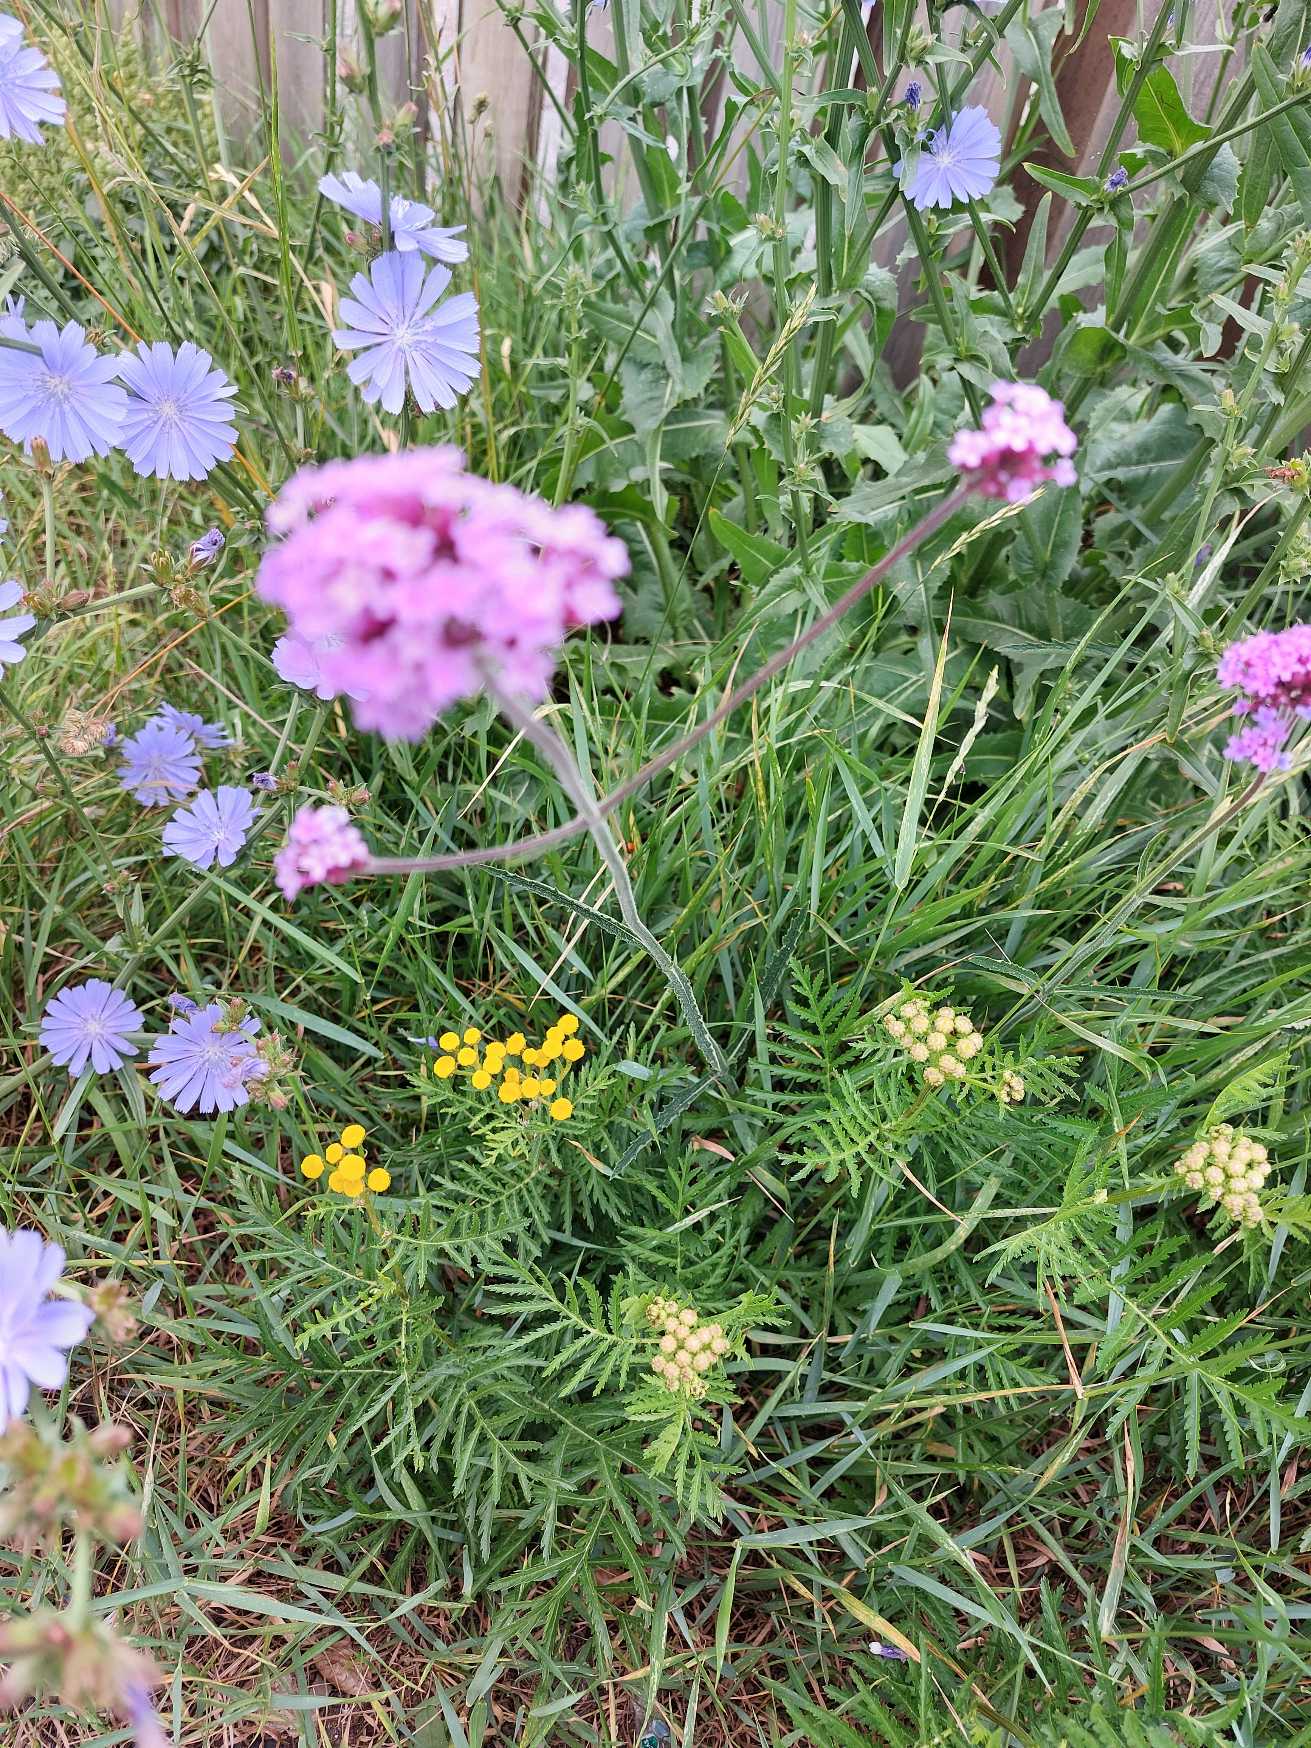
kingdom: Plantae
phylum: Tracheophyta
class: Magnoliopsida
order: Lamiales
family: Verbenaceae
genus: Verbena
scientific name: Verbena bonariensis
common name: Kæmpe-jernurt
